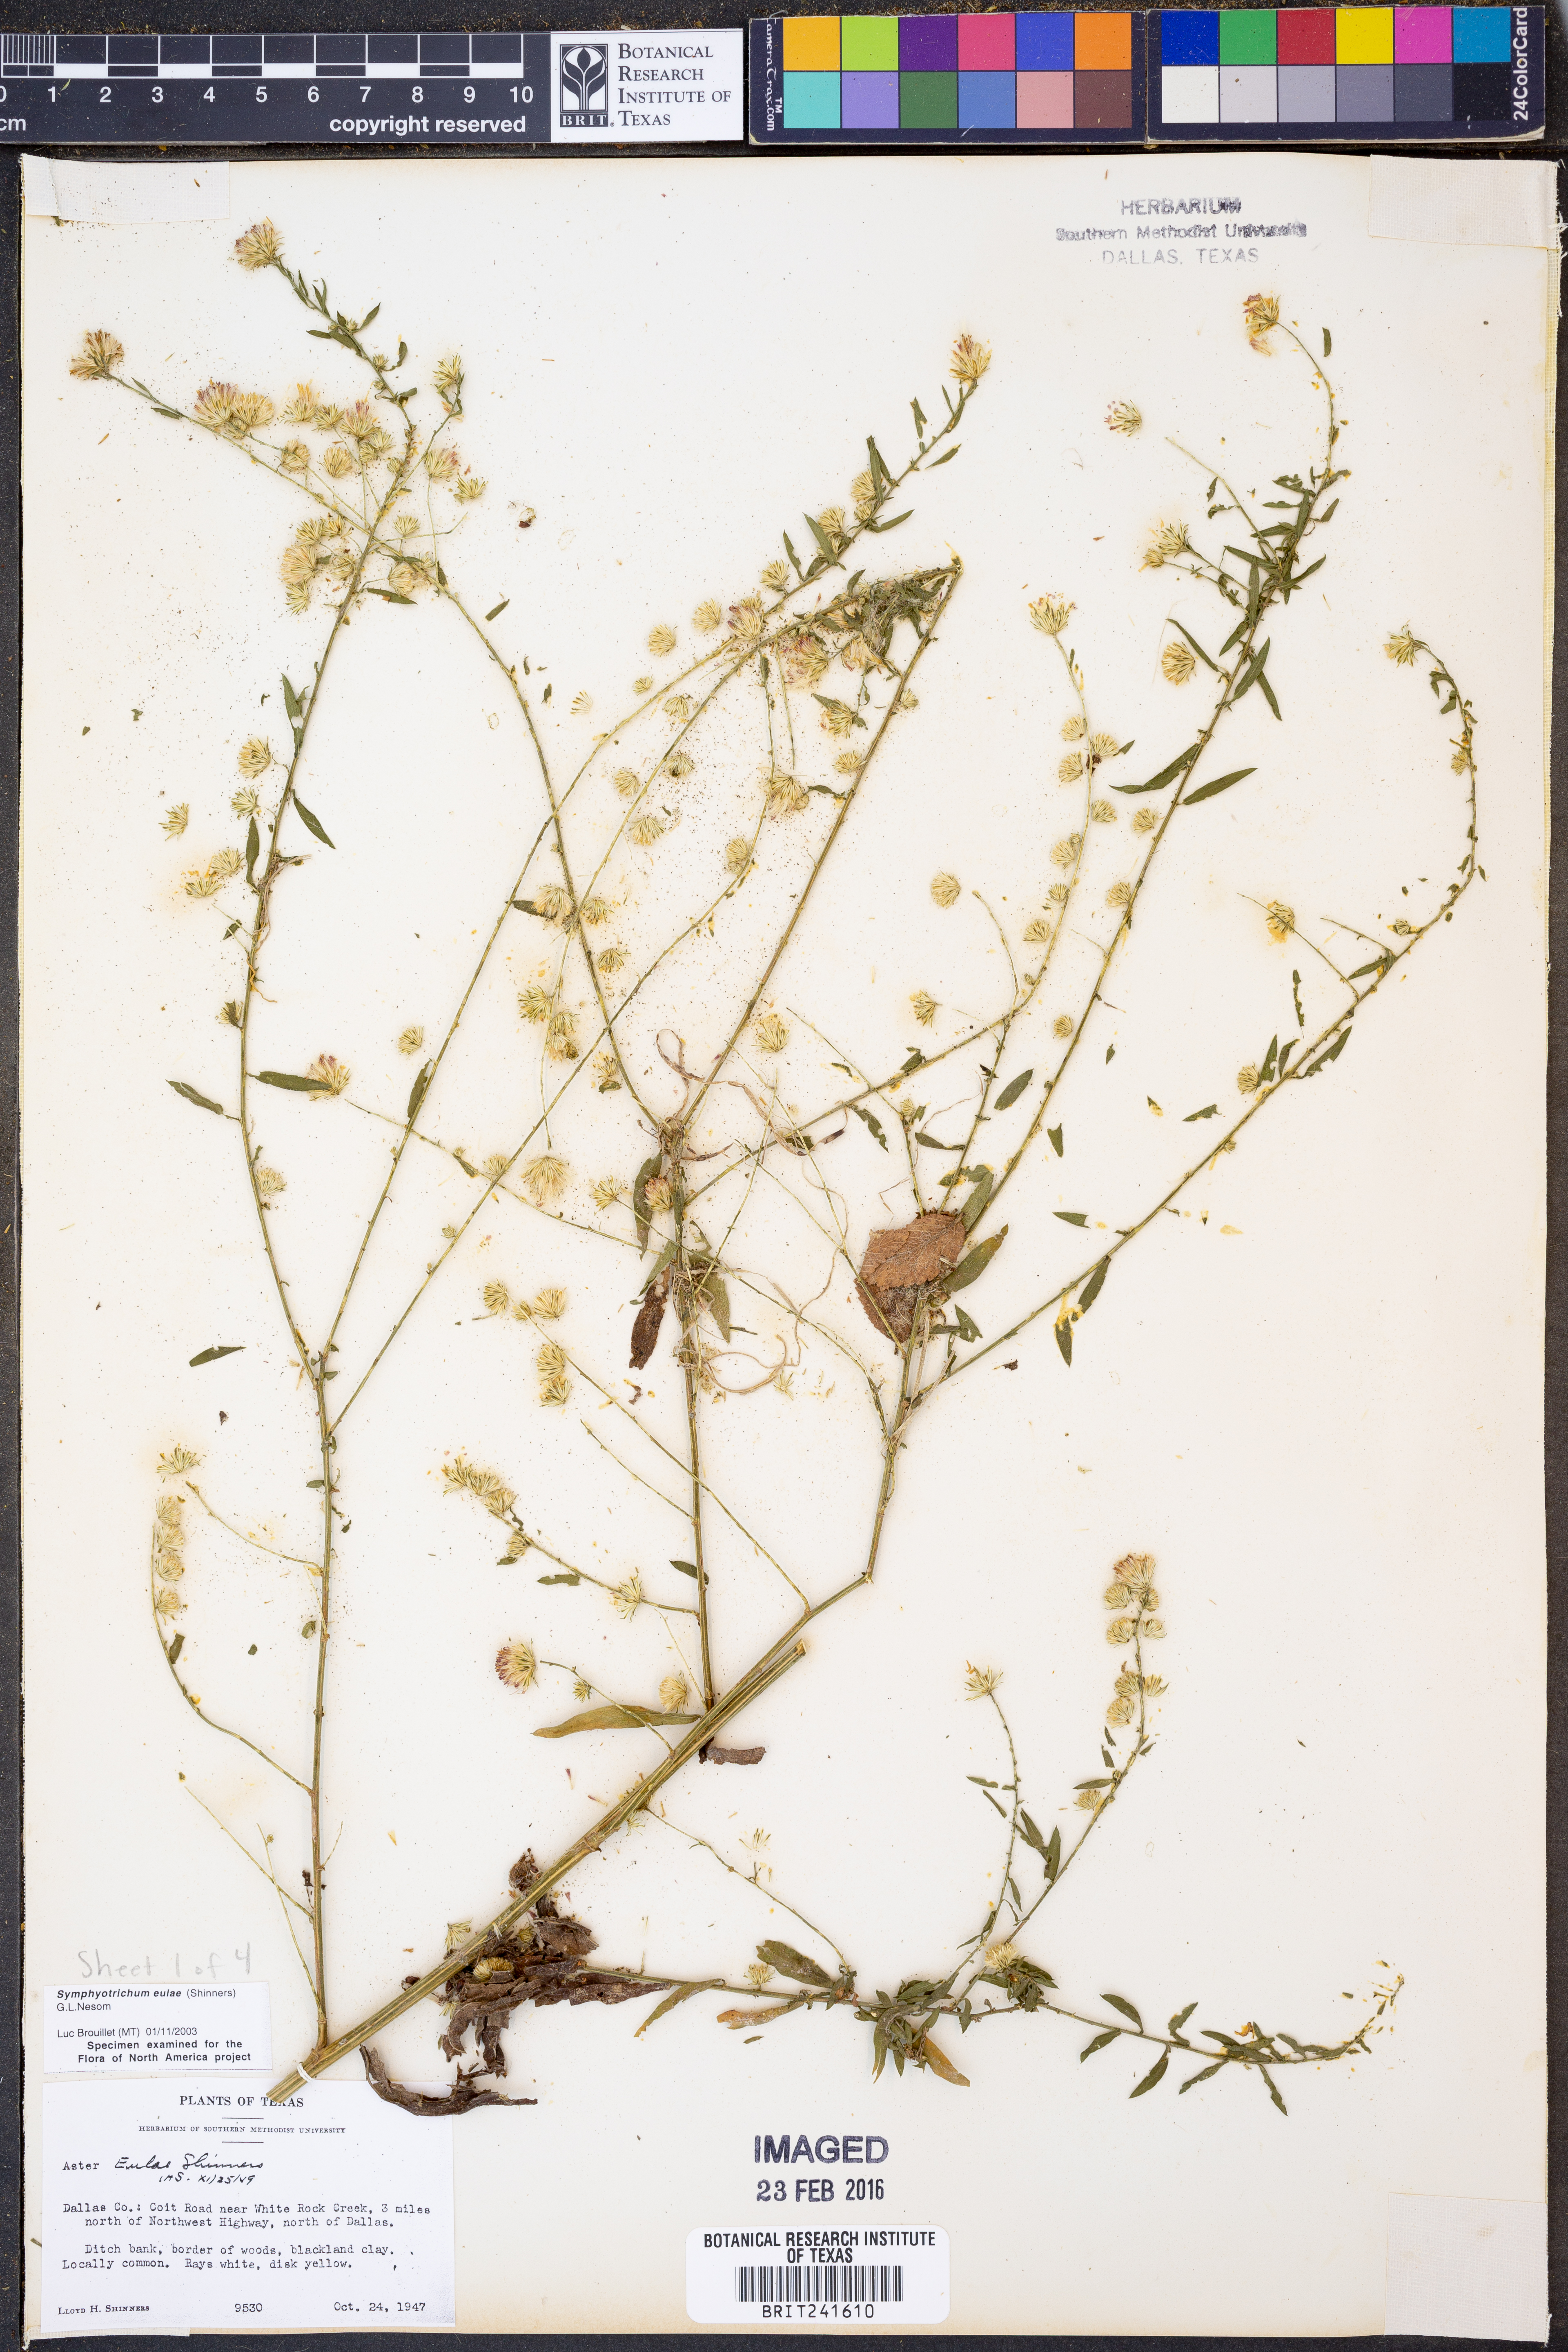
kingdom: Plantae
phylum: Tracheophyta
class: Magnoliopsida
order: Asterales
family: Asteraceae
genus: Symphyotrichum
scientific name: Symphyotrichum eulae
